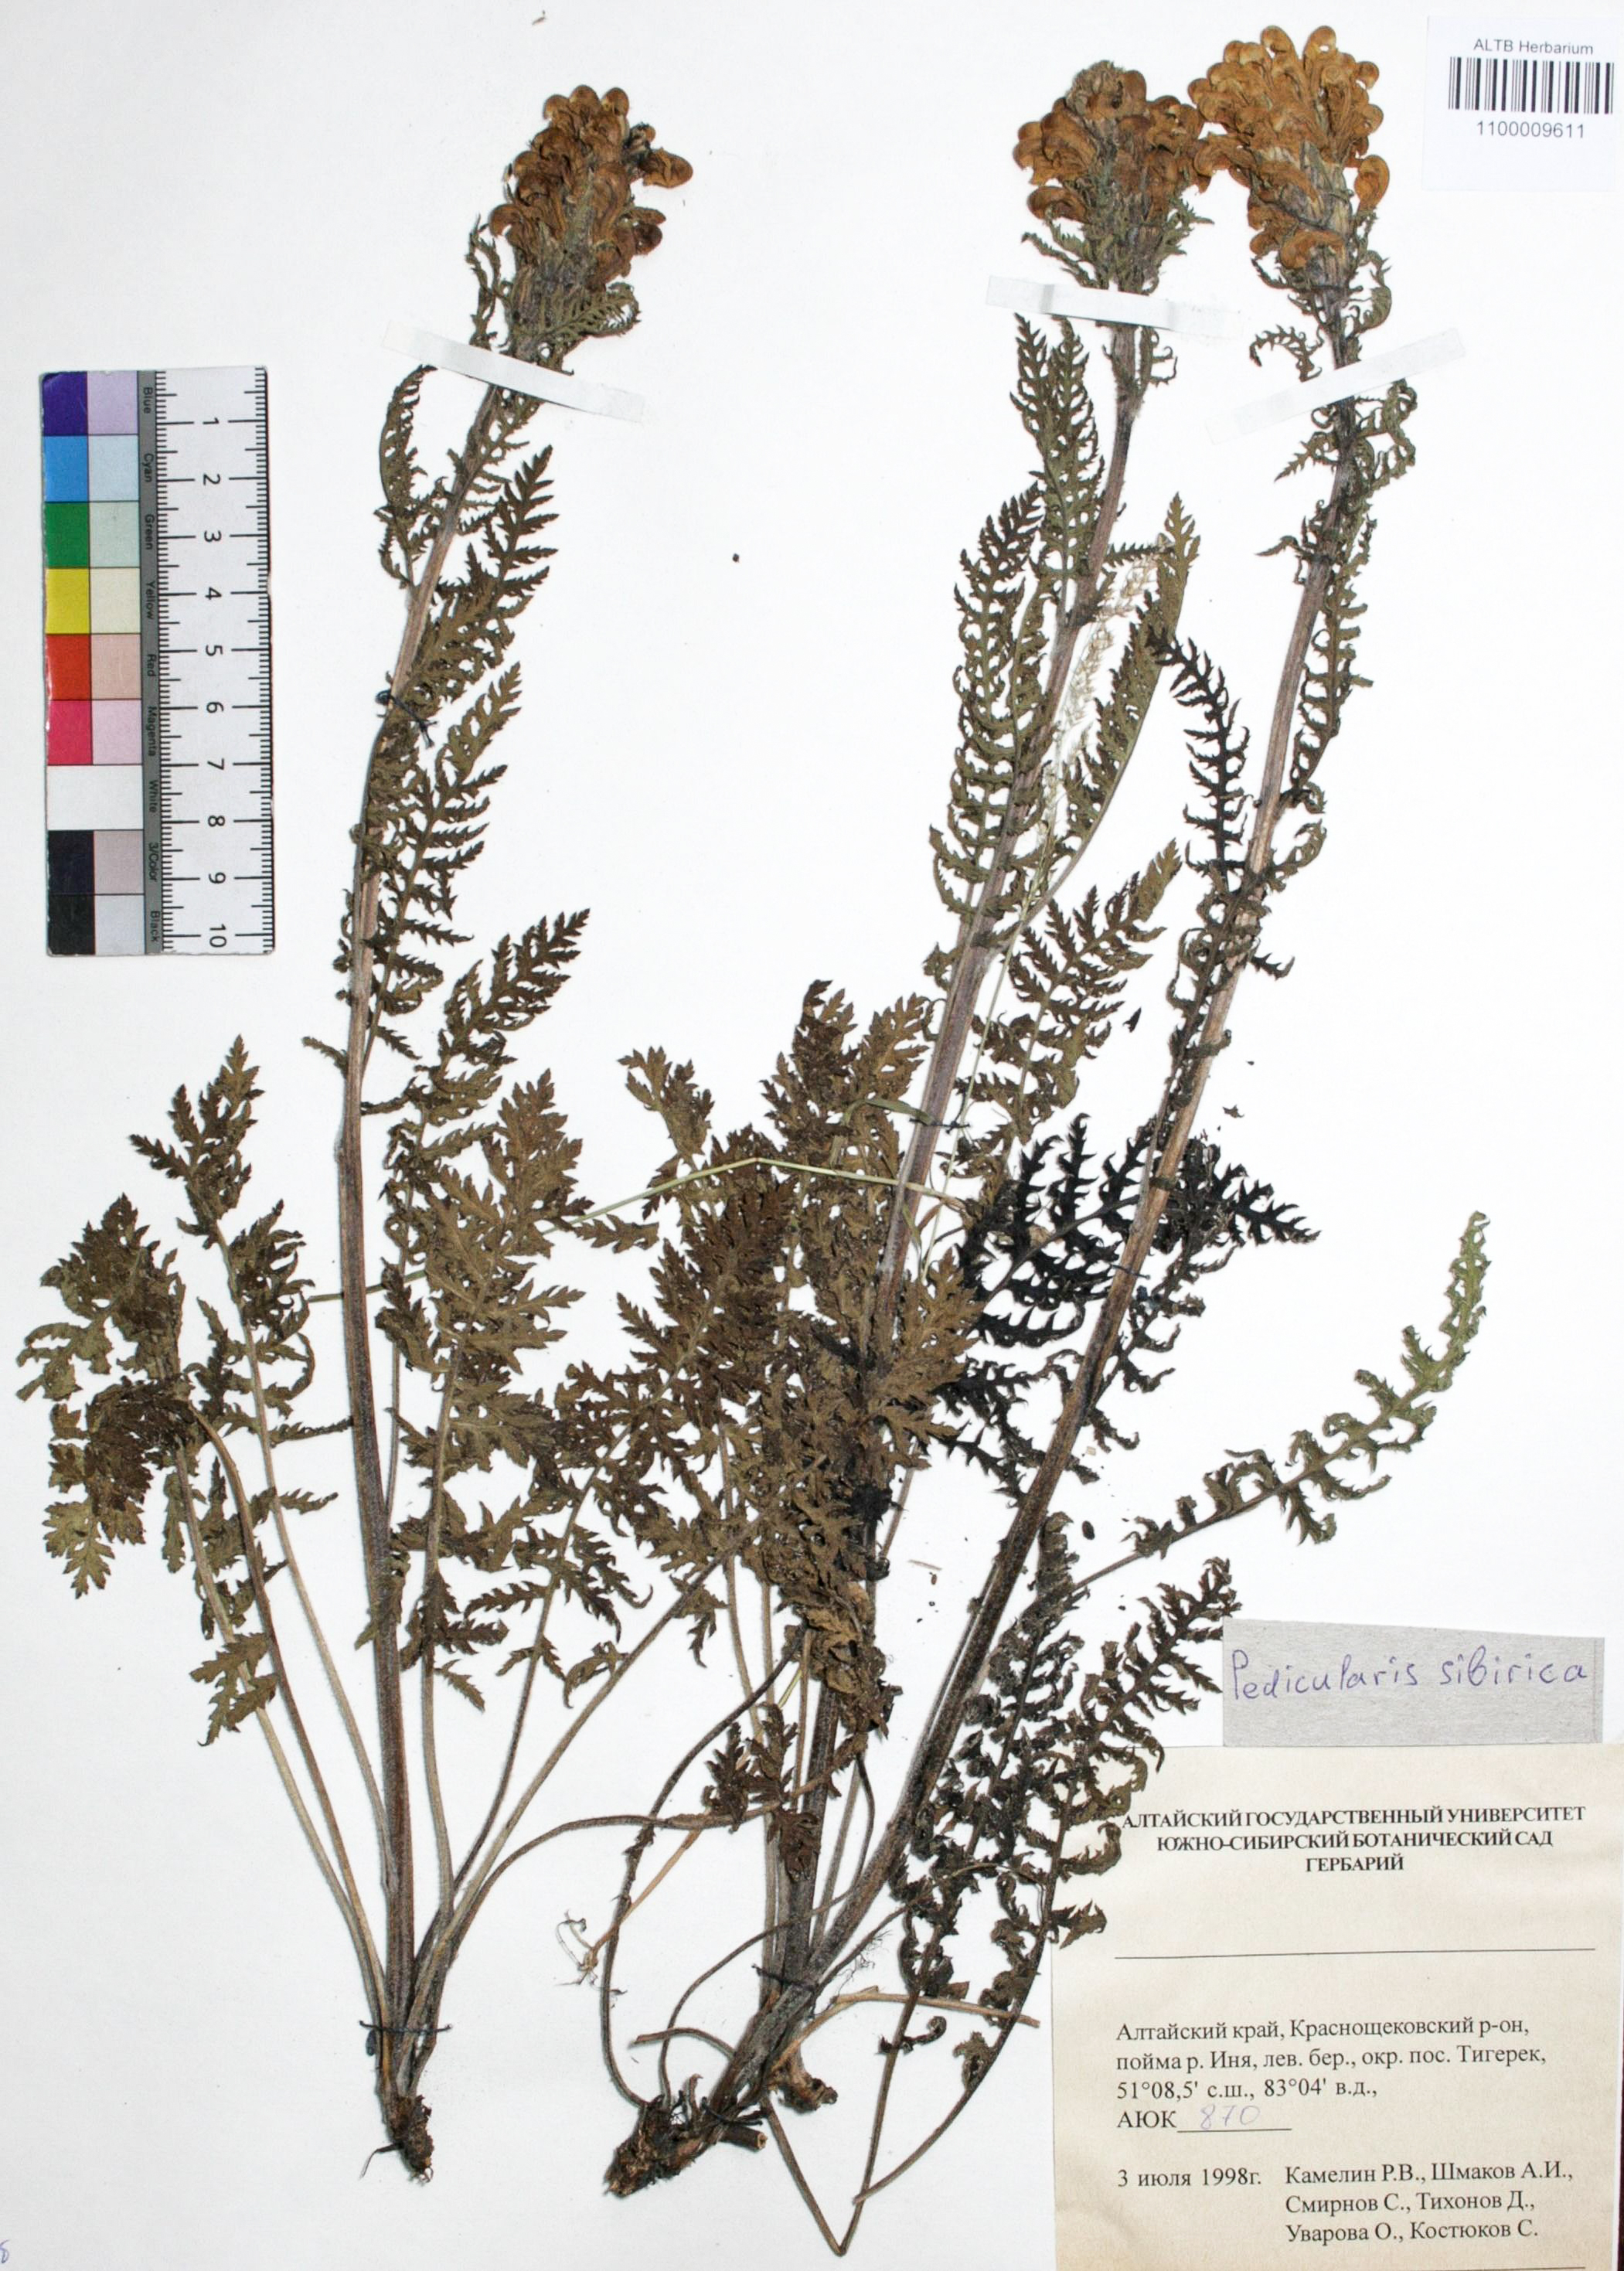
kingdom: Plantae
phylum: Tracheophyta
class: Magnoliopsida
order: Lamiales
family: Orobanchaceae
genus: Pedicularis
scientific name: Pedicularis sibirica
